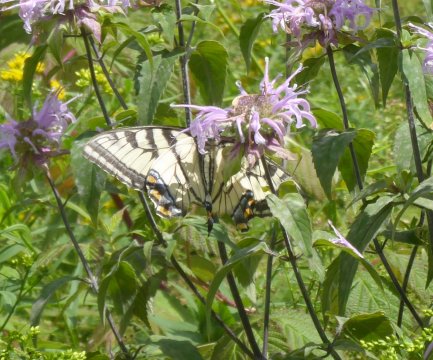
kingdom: Animalia
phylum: Arthropoda
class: Insecta
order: Lepidoptera
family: Papilionidae
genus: Pterourus
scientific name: Pterourus
